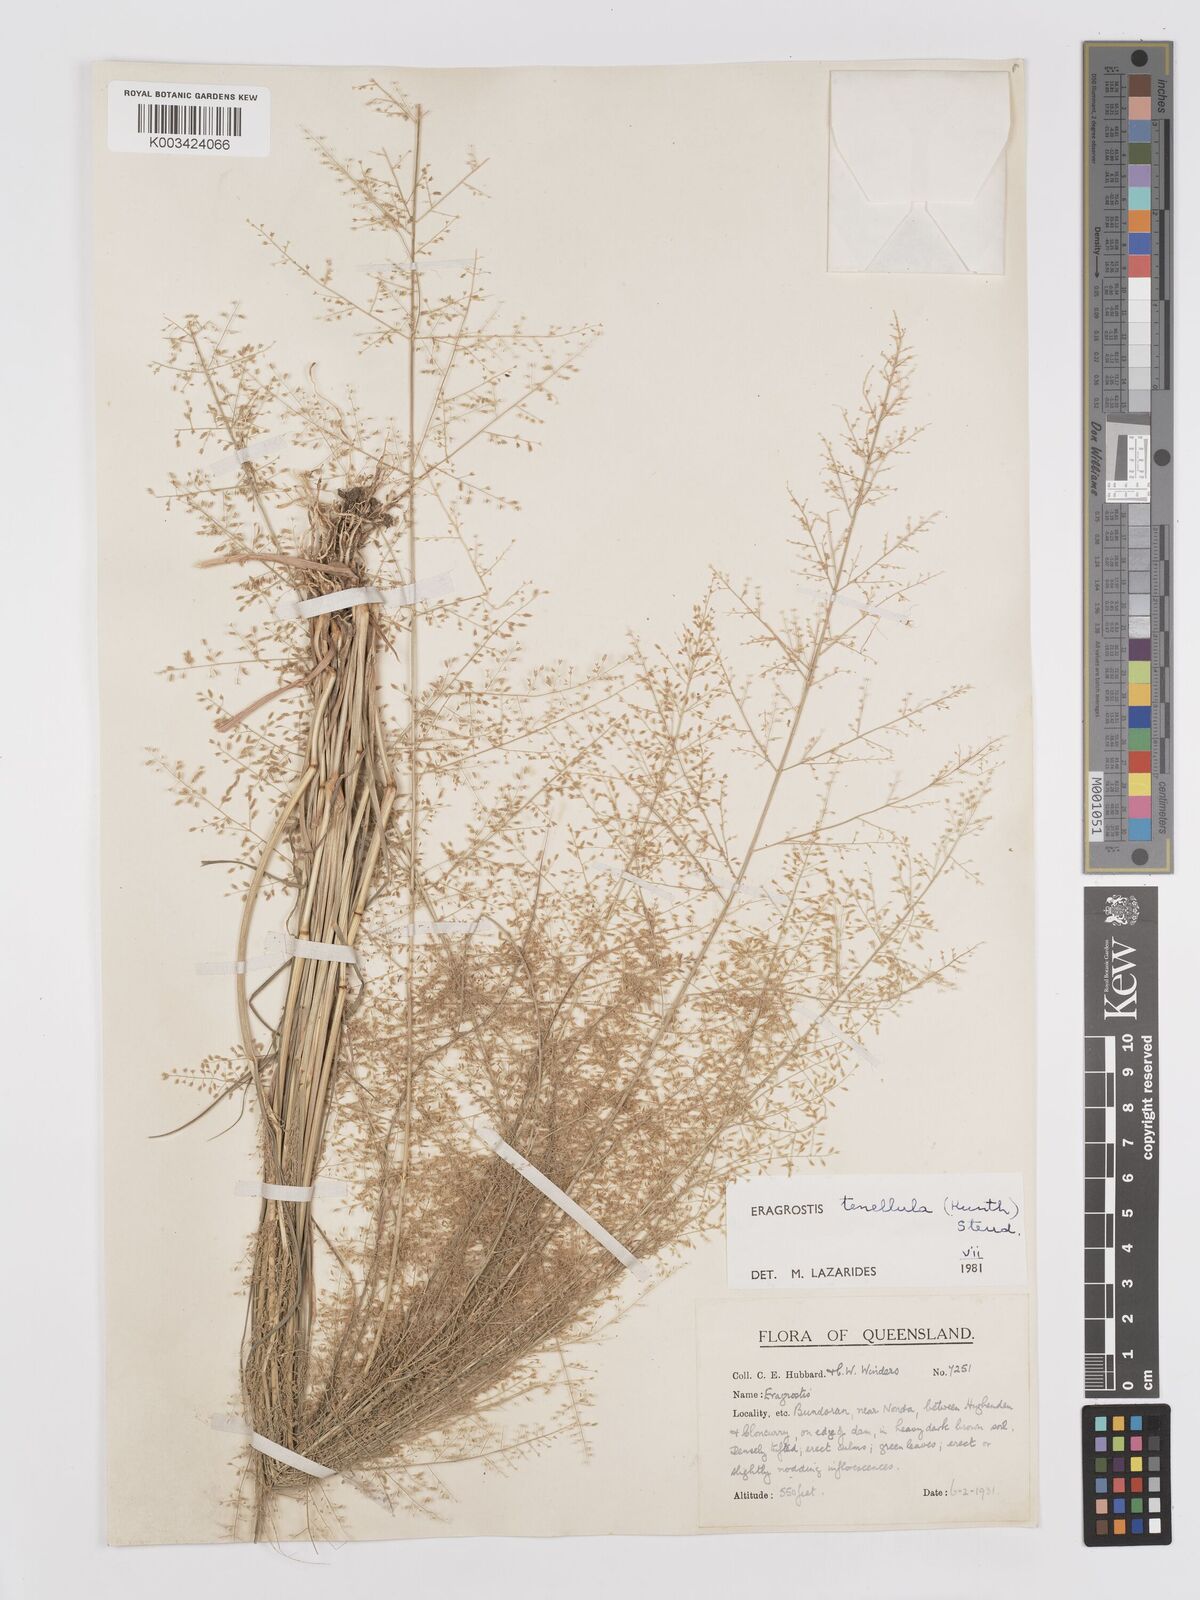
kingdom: Plantae
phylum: Tracheophyta
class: Liliopsida
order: Poales
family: Poaceae
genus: Eragrostis
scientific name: Eragrostis tenellula
